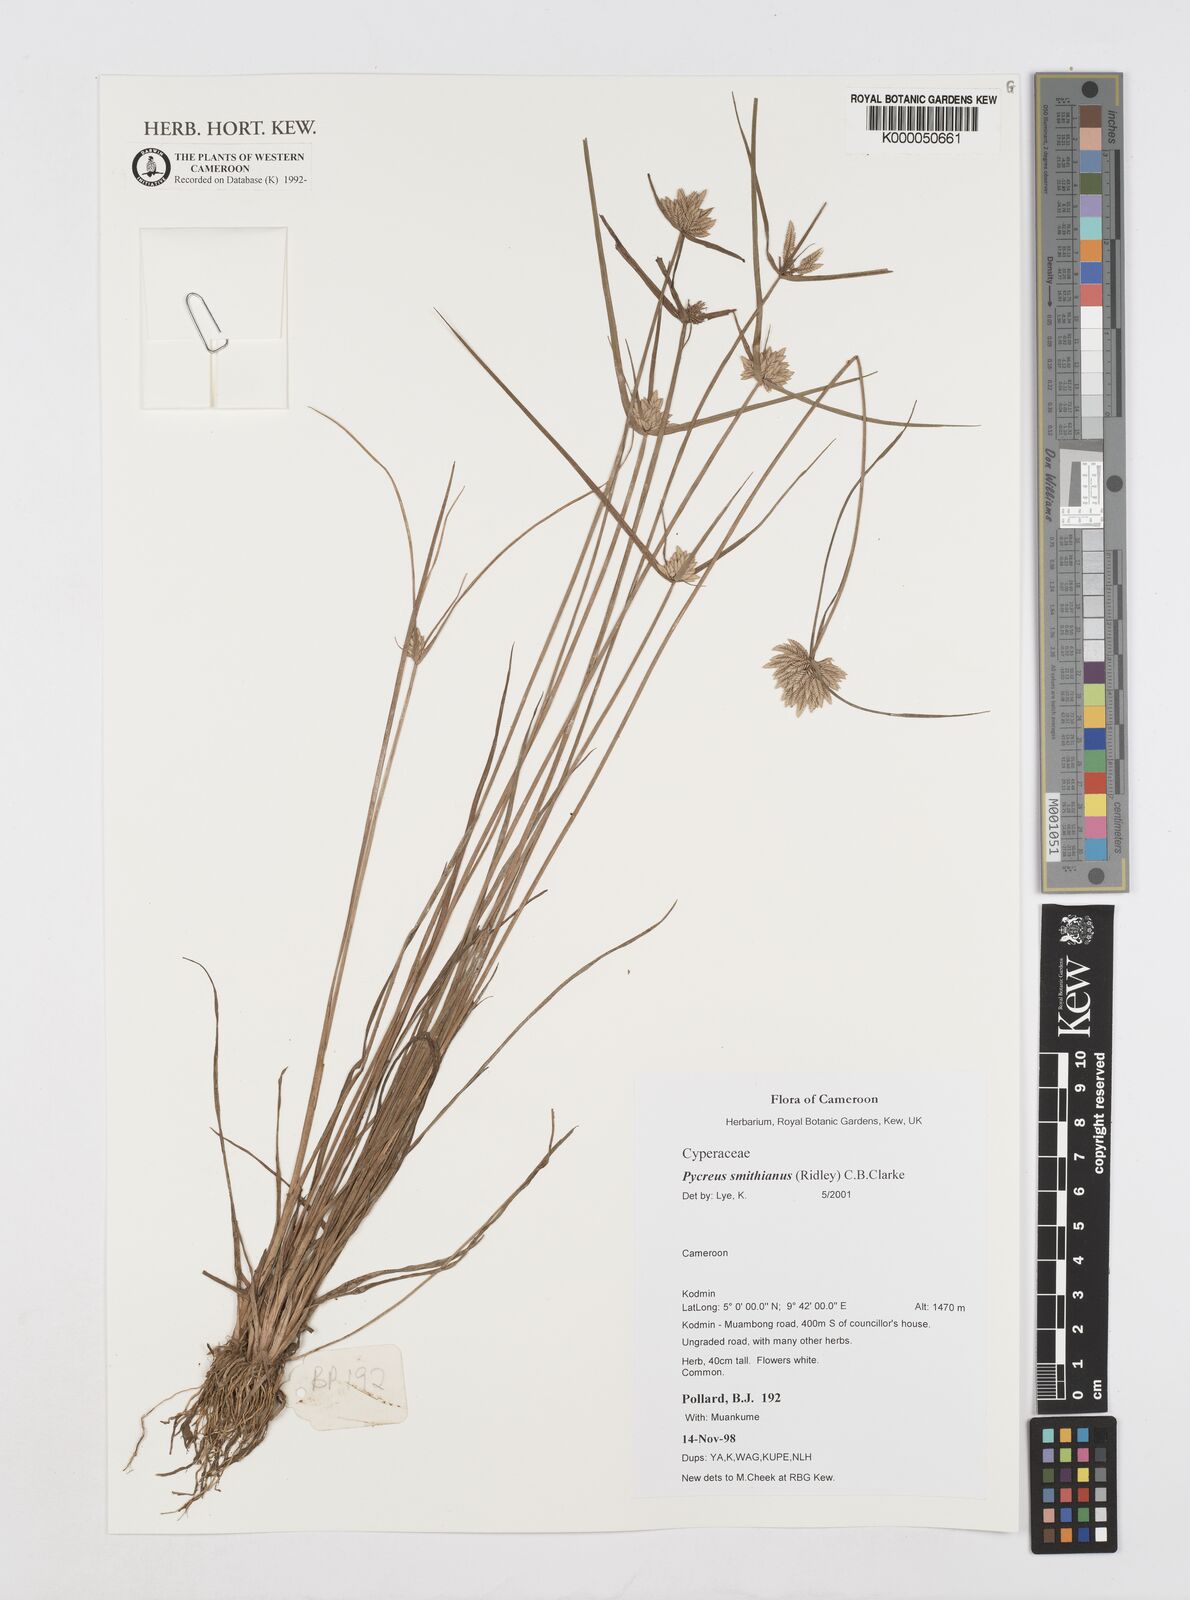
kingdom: Plantae
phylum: Tracheophyta
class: Liliopsida
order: Poales
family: Cyperaceae
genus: Cyperus
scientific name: Cyperus smithianus
